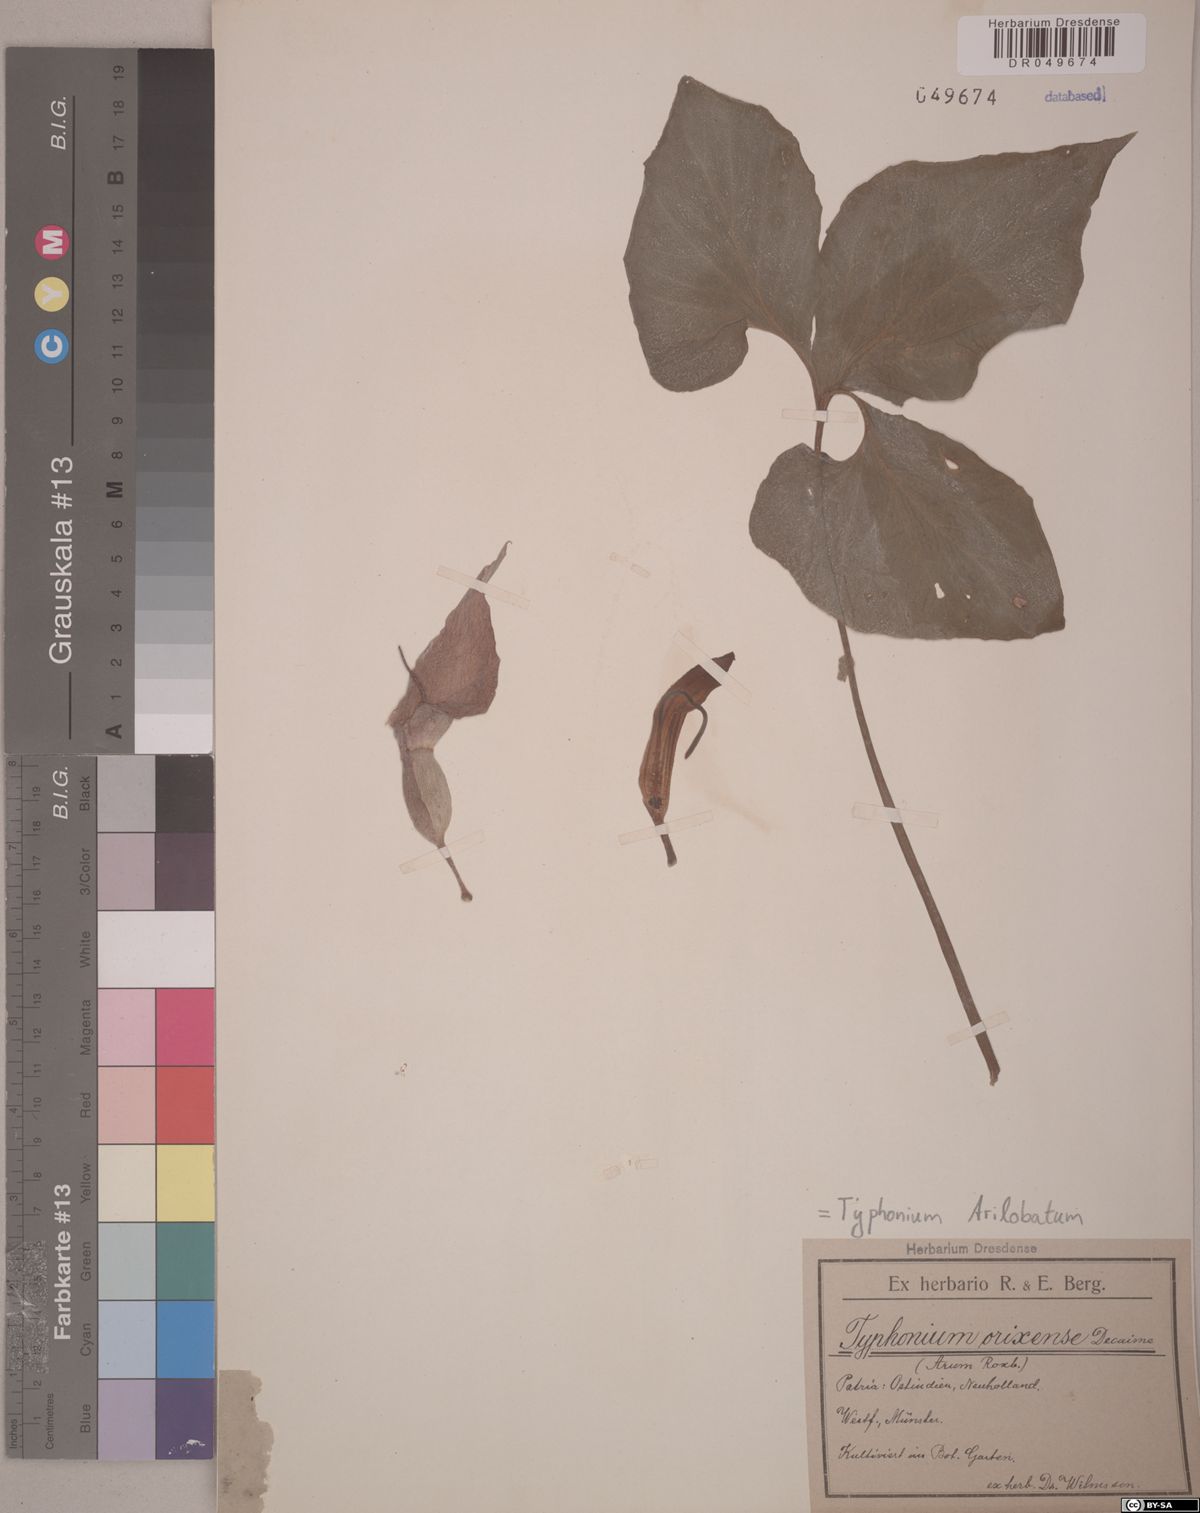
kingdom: Plantae
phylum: Tracheophyta
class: Liliopsida
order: Alismatales
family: Araceae
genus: Typhonium
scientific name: Typhonium trilobatum
